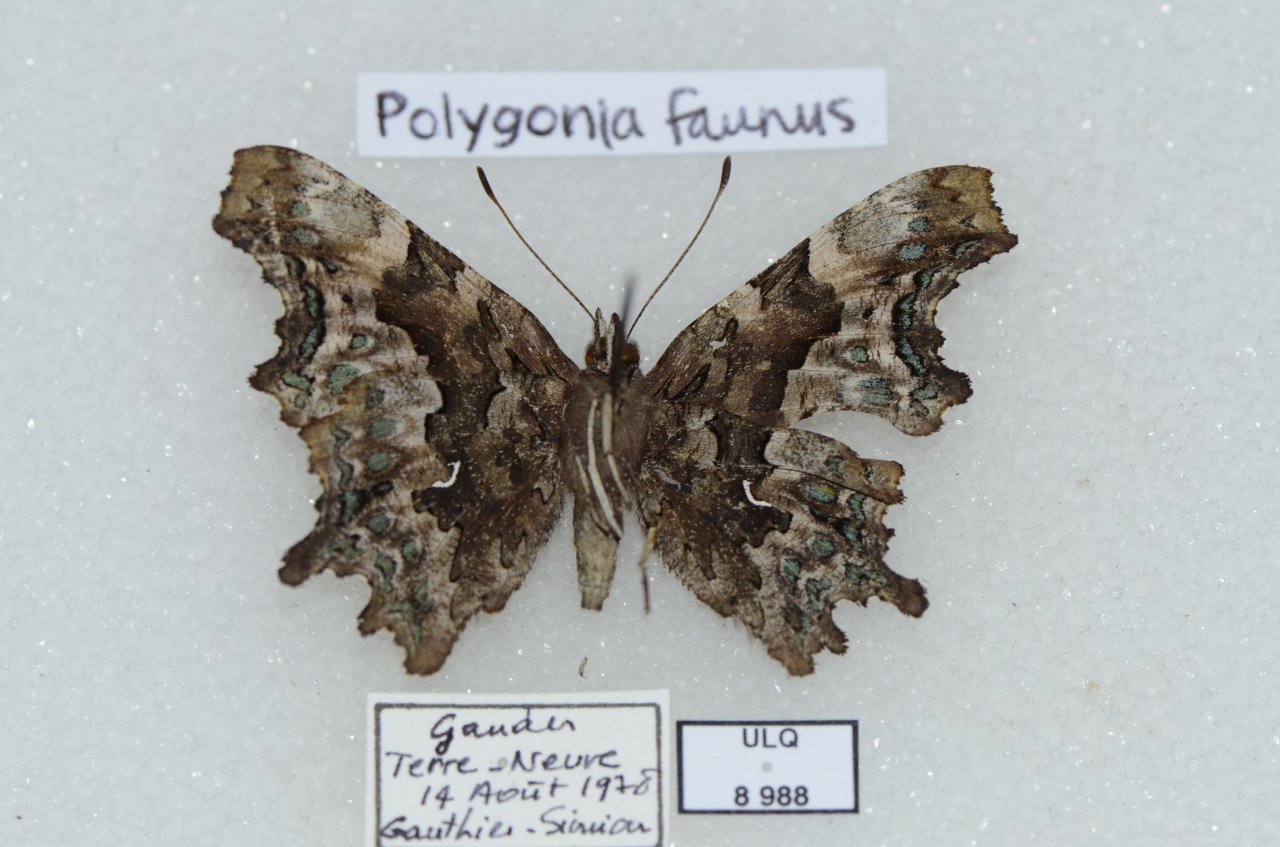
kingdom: Animalia
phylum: Arthropoda
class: Insecta
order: Lepidoptera
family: Nymphalidae
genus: Polygonia
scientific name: Polygonia faunus
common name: Green Comma
